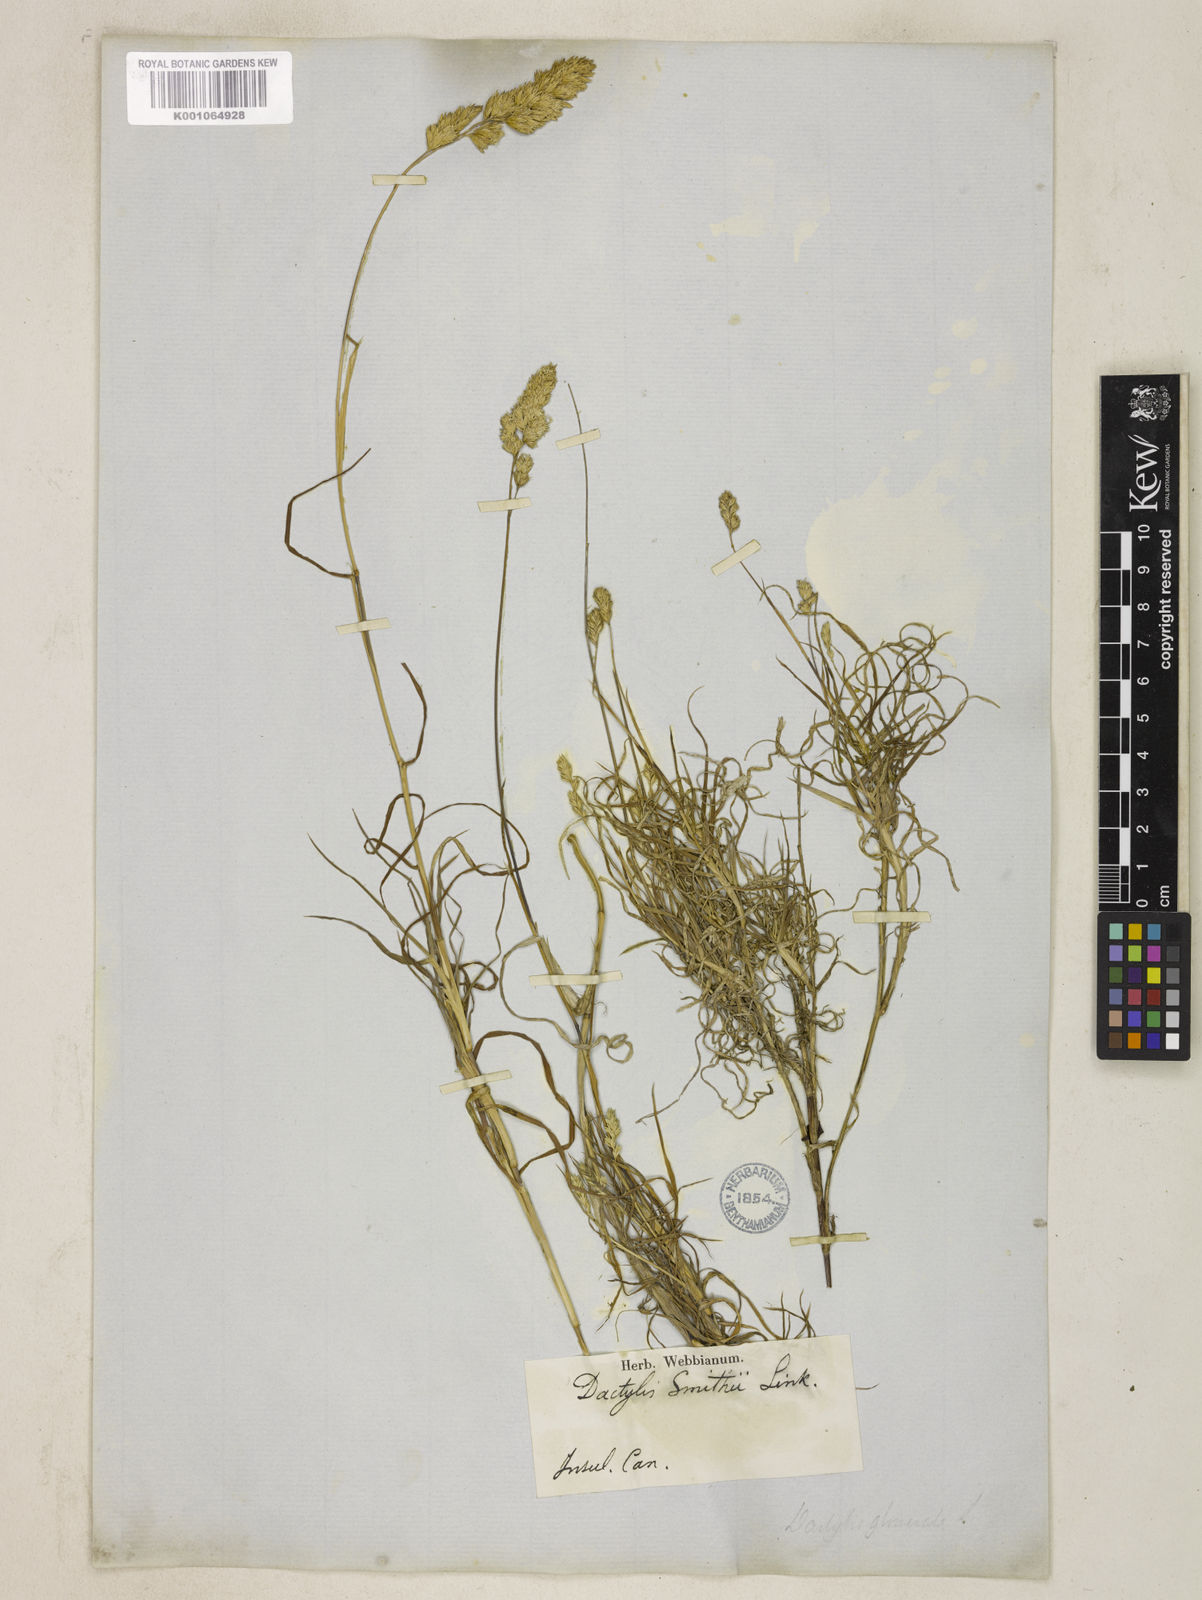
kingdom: Plantae
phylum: Tracheophyta
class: Liliopsida
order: Poales
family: Poaceae
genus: Dactylis
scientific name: Dactylis glomerata
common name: Orchardgrass
